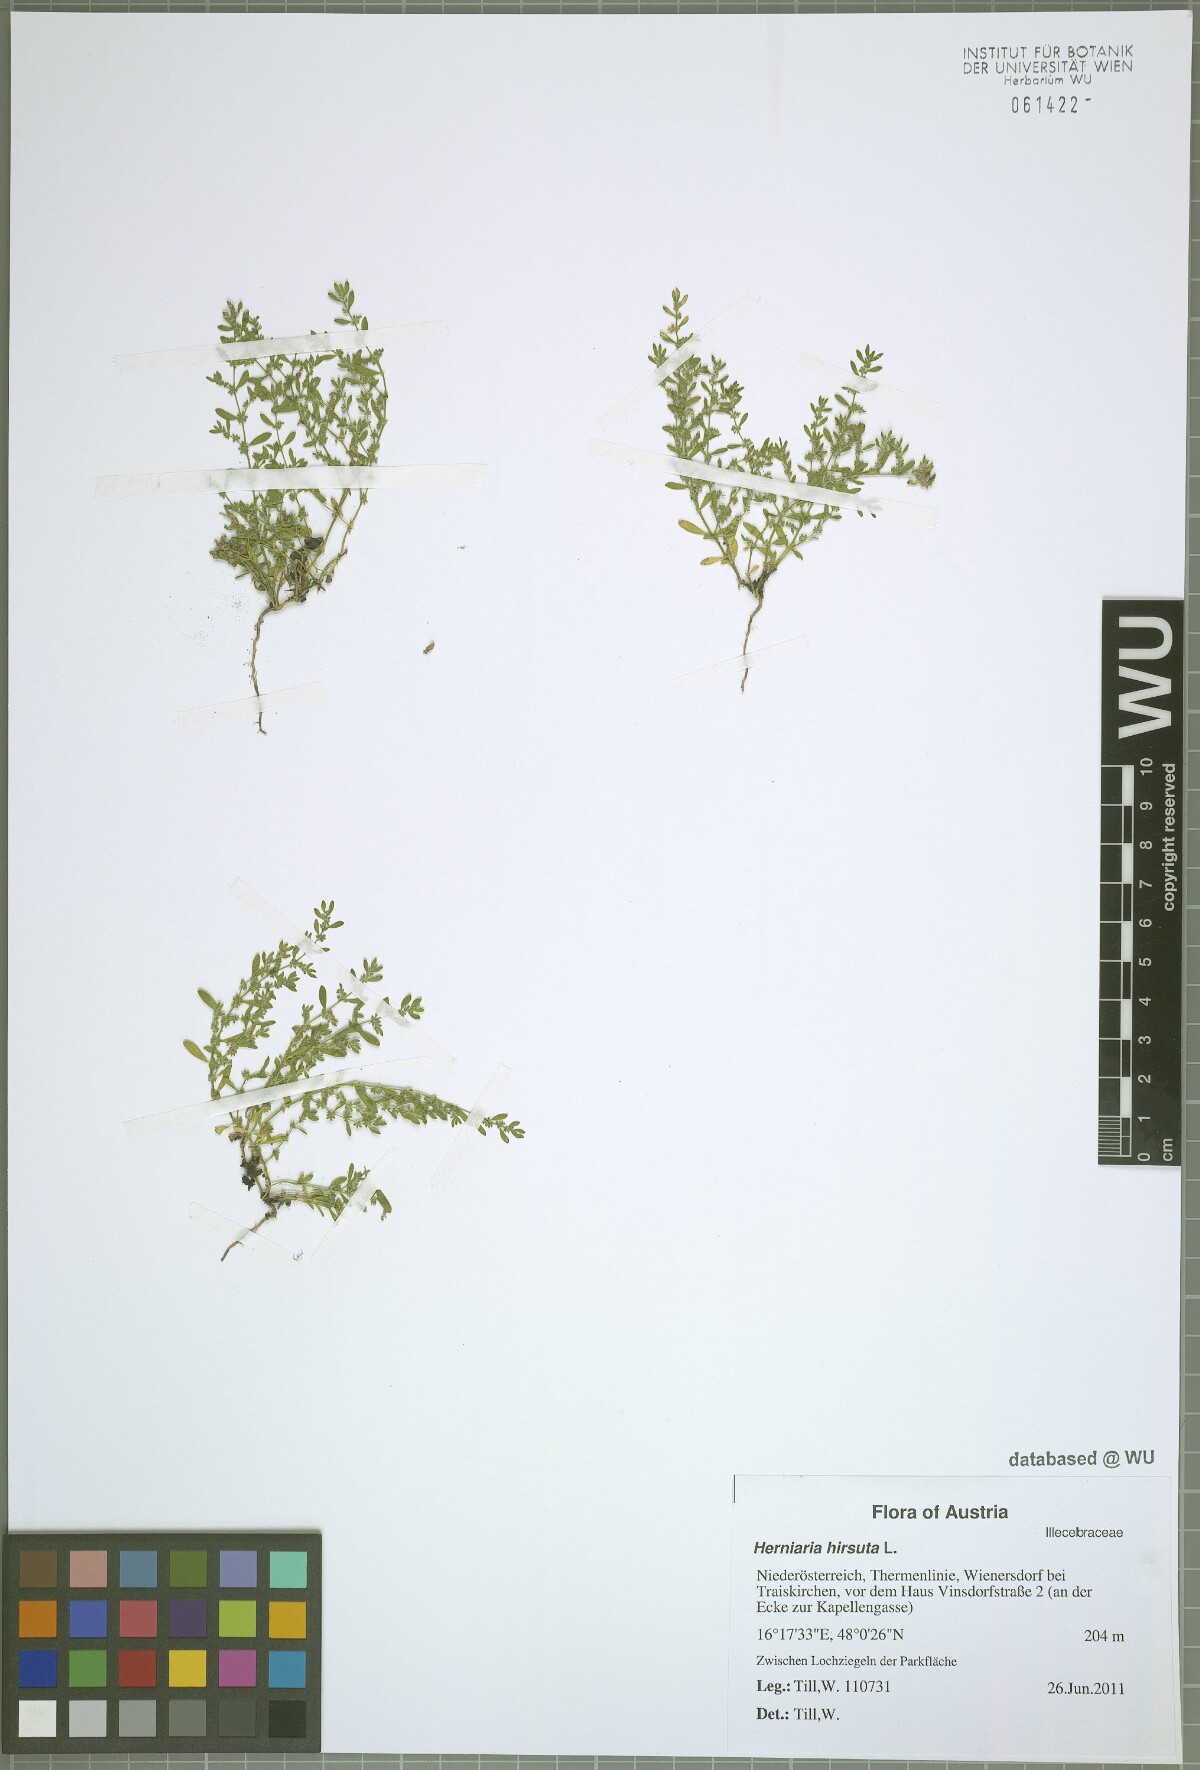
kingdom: Plantae
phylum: Tracheophyta
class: Magnoliopsida
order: Caryophyllales
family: Caryophyllaceae
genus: Herniaria
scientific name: Herniaria hirsuta
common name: Hairy rupturewort
